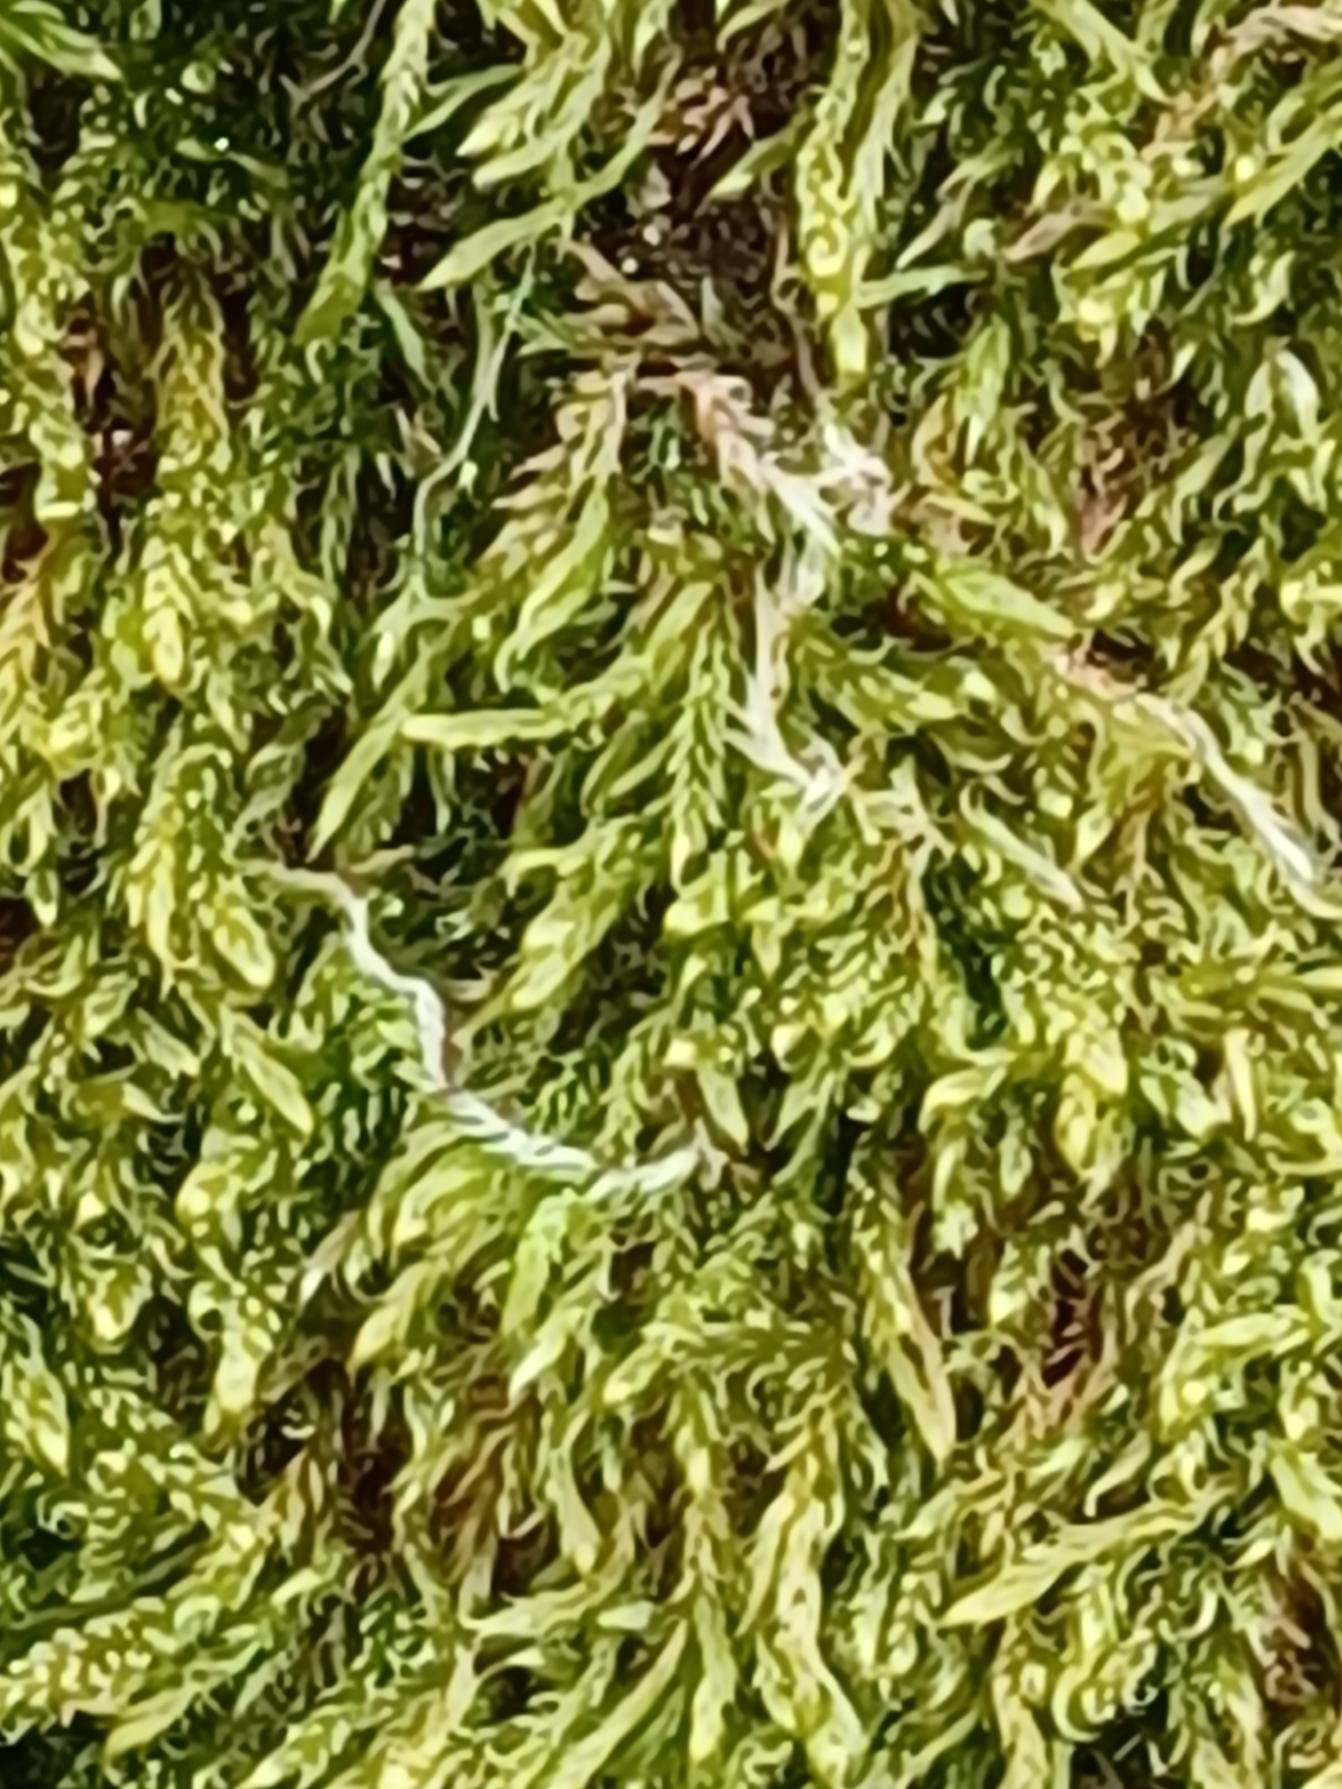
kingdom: Plantae
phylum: Bryophyta
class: Bryopsida
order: Hypnales
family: Hypnaceae
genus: Hypnum
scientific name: Hypnum
